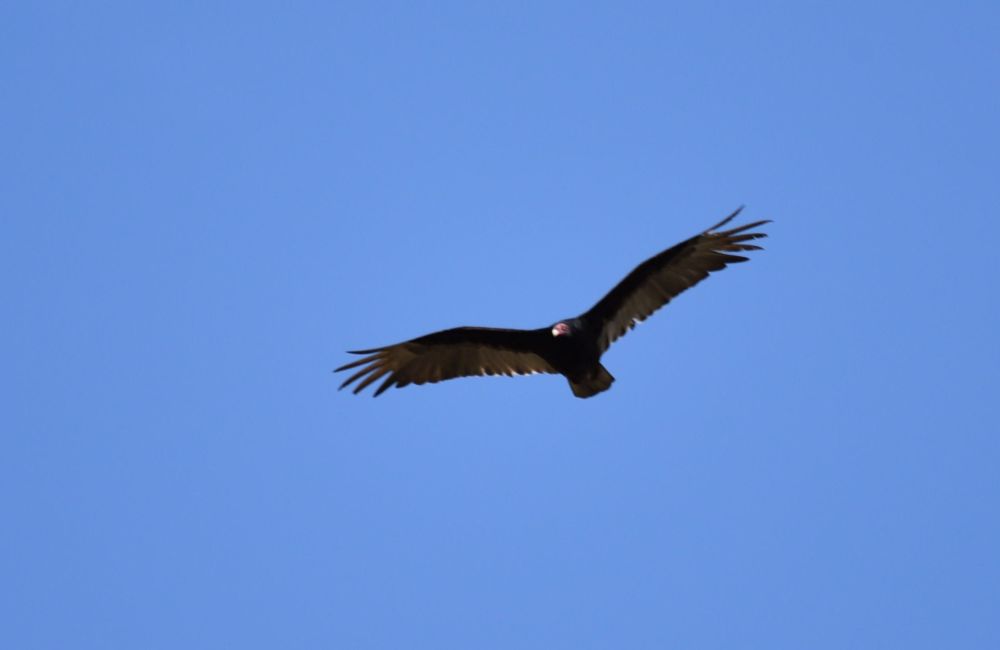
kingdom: Animalia
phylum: Chordata
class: Aves
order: Accipitriformes
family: Cathartidae
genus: Cathartes
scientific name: Cathartes aura
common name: Turkey vulture
